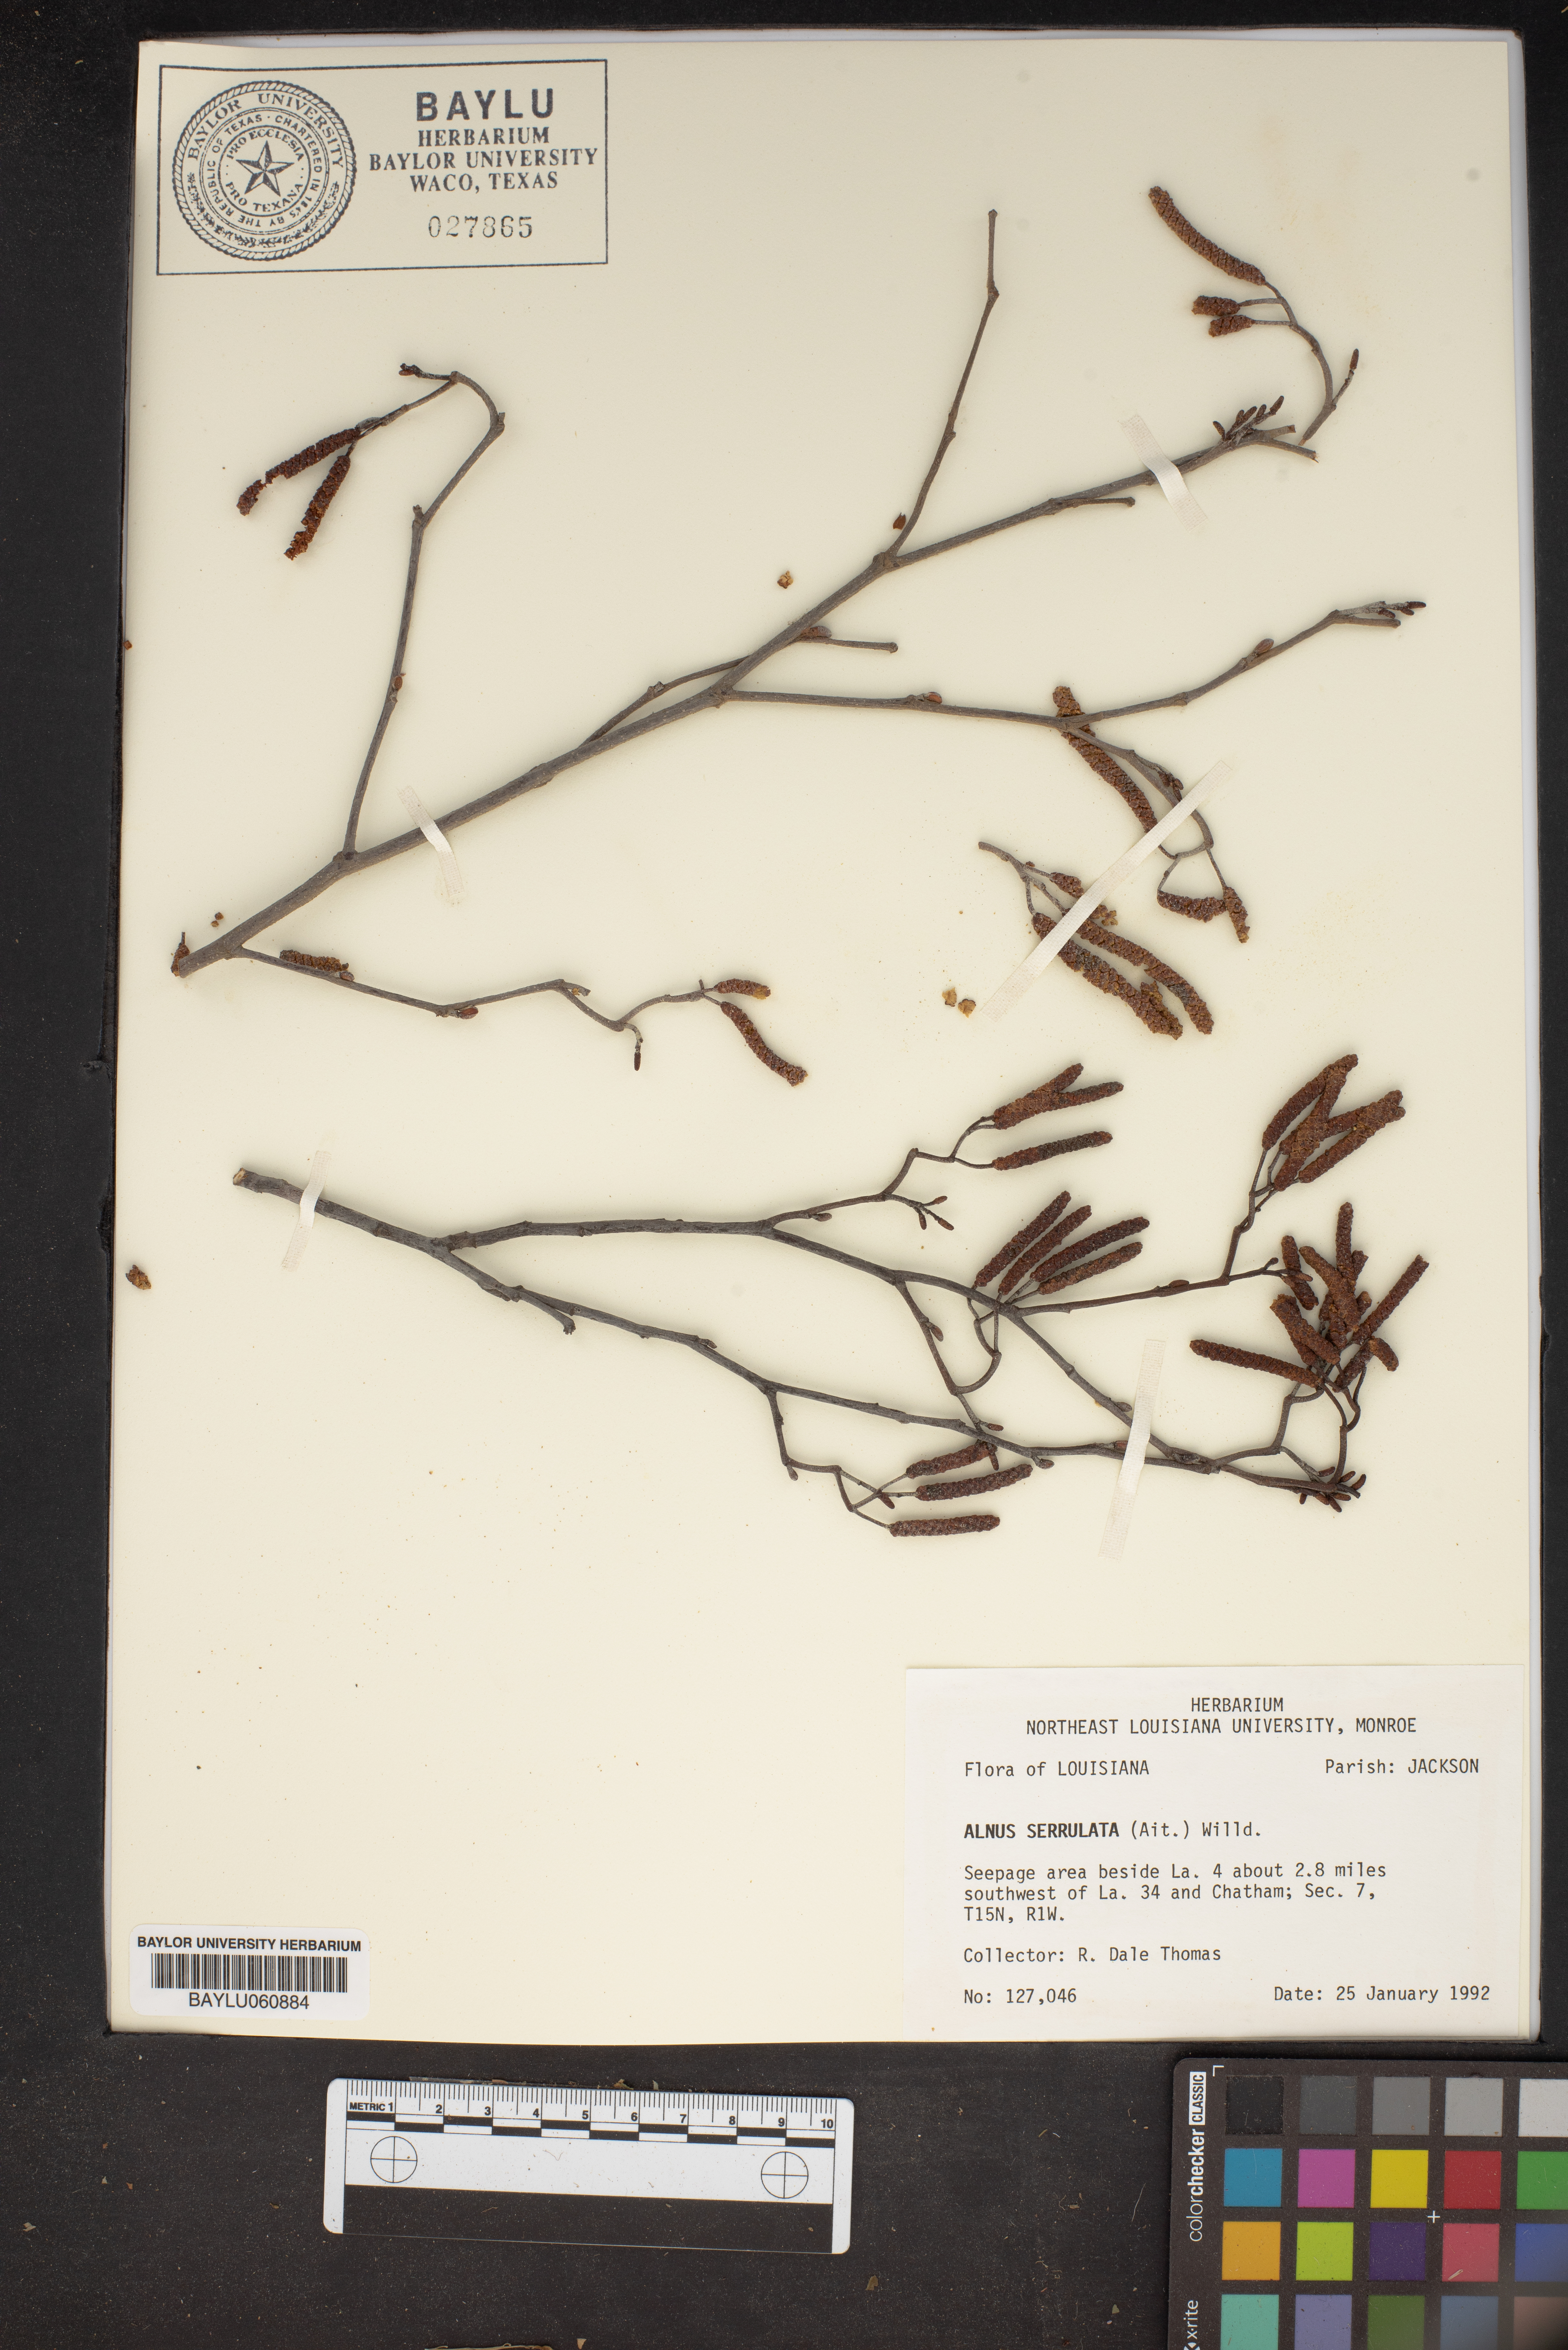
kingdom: Plantae
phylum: Tracheophyta
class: Magnoliopsida
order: Fagales
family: Betulaceae
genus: Alnus
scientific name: Alnus serrulata
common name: Hazel alder
